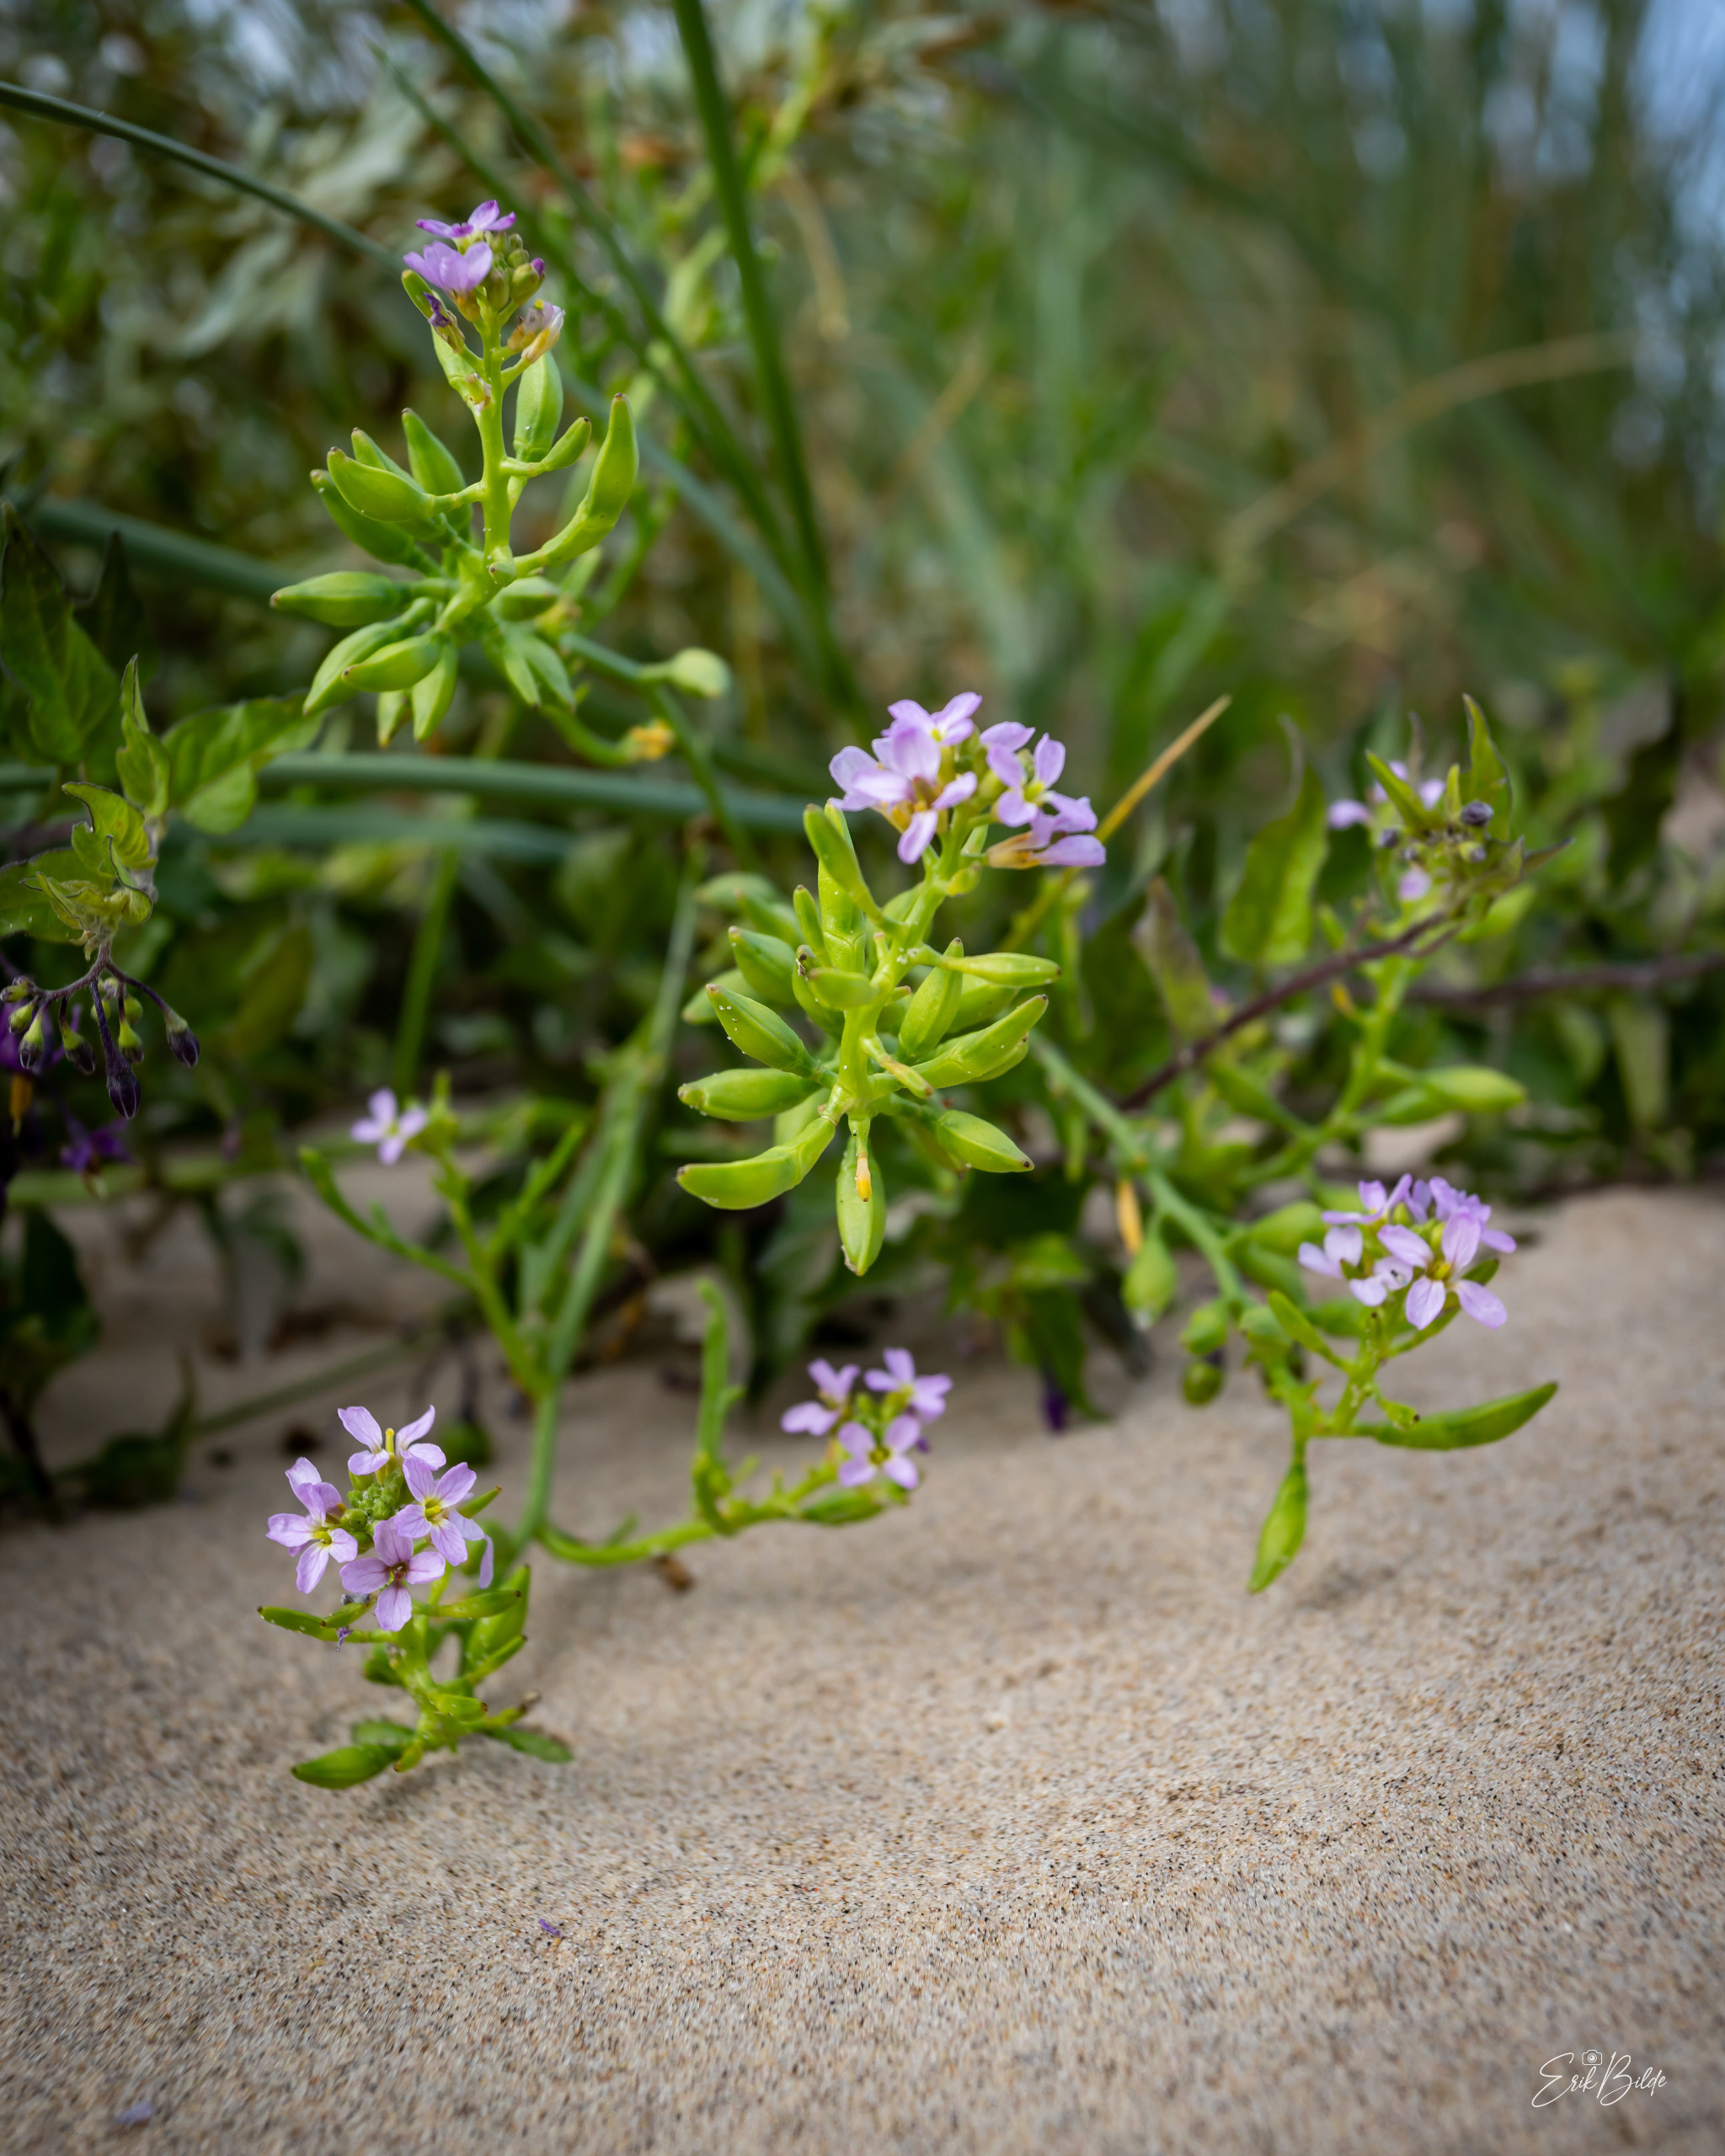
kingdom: Plantae
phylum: Tracheophyta
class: Magnoliopsida
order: Brassicales
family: Brassicaceae
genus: Cakile
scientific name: Cakile maritima
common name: Strandsennep
